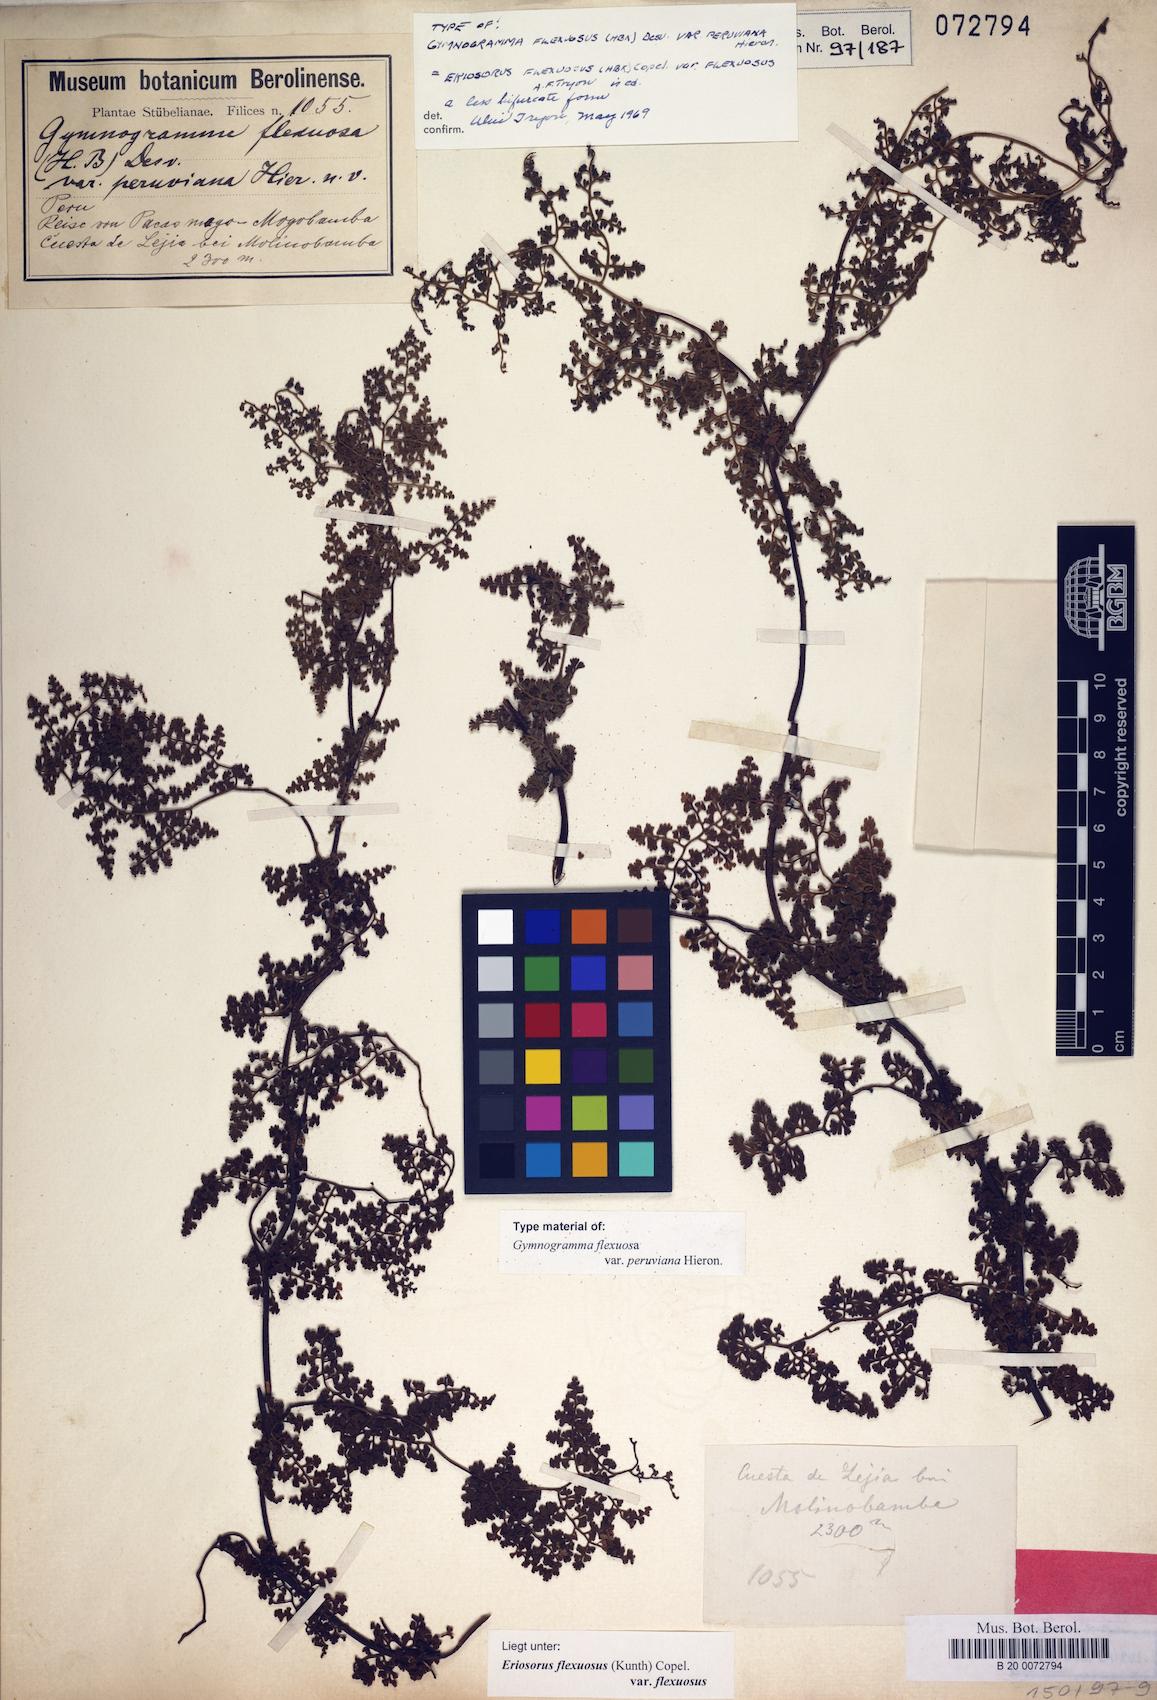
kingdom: Plantae
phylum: Tracheophyta
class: Polypodiopsida
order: Polypodiales
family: Pteridaceae
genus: Jamesonia
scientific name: Jamesonia flexuosa
